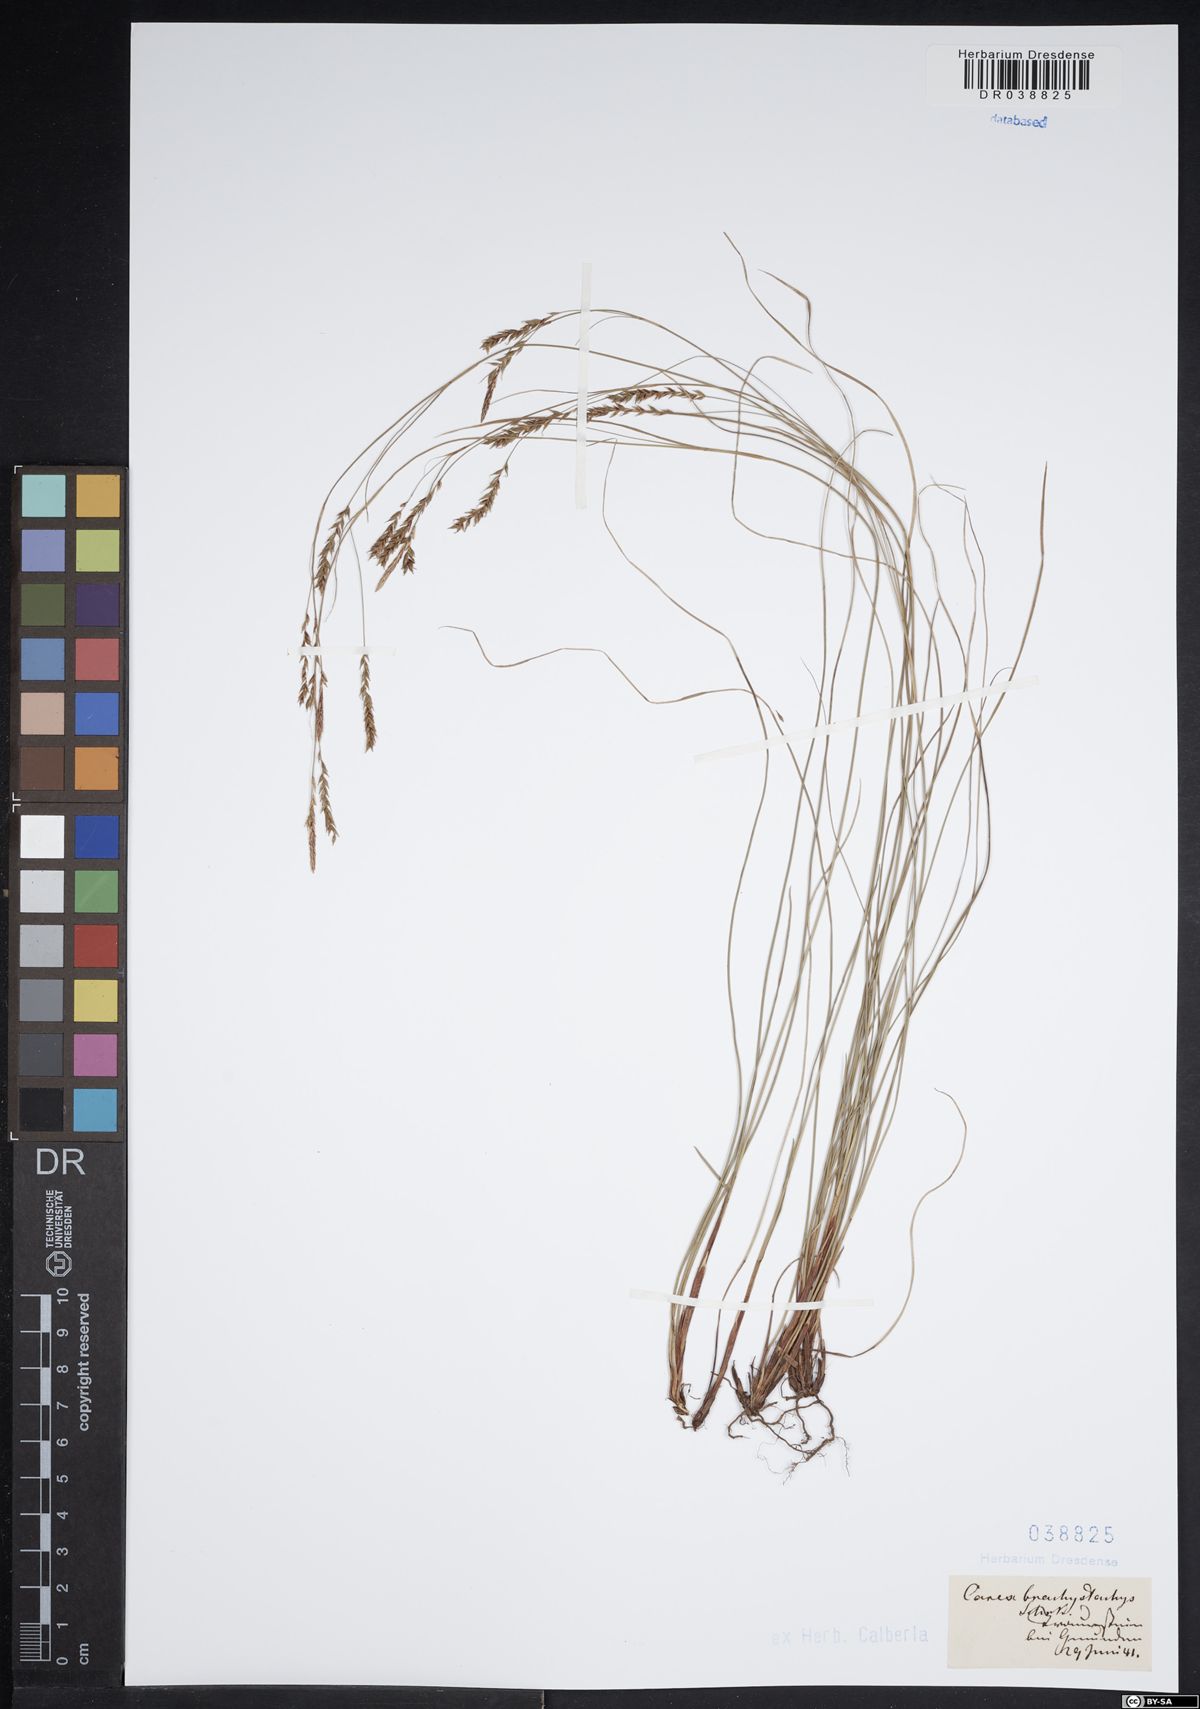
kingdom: Plantae
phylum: Tracheophyta
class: Liliopsida
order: Poales
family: Cyperaceae
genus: Carex
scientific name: Carex brachystachys
